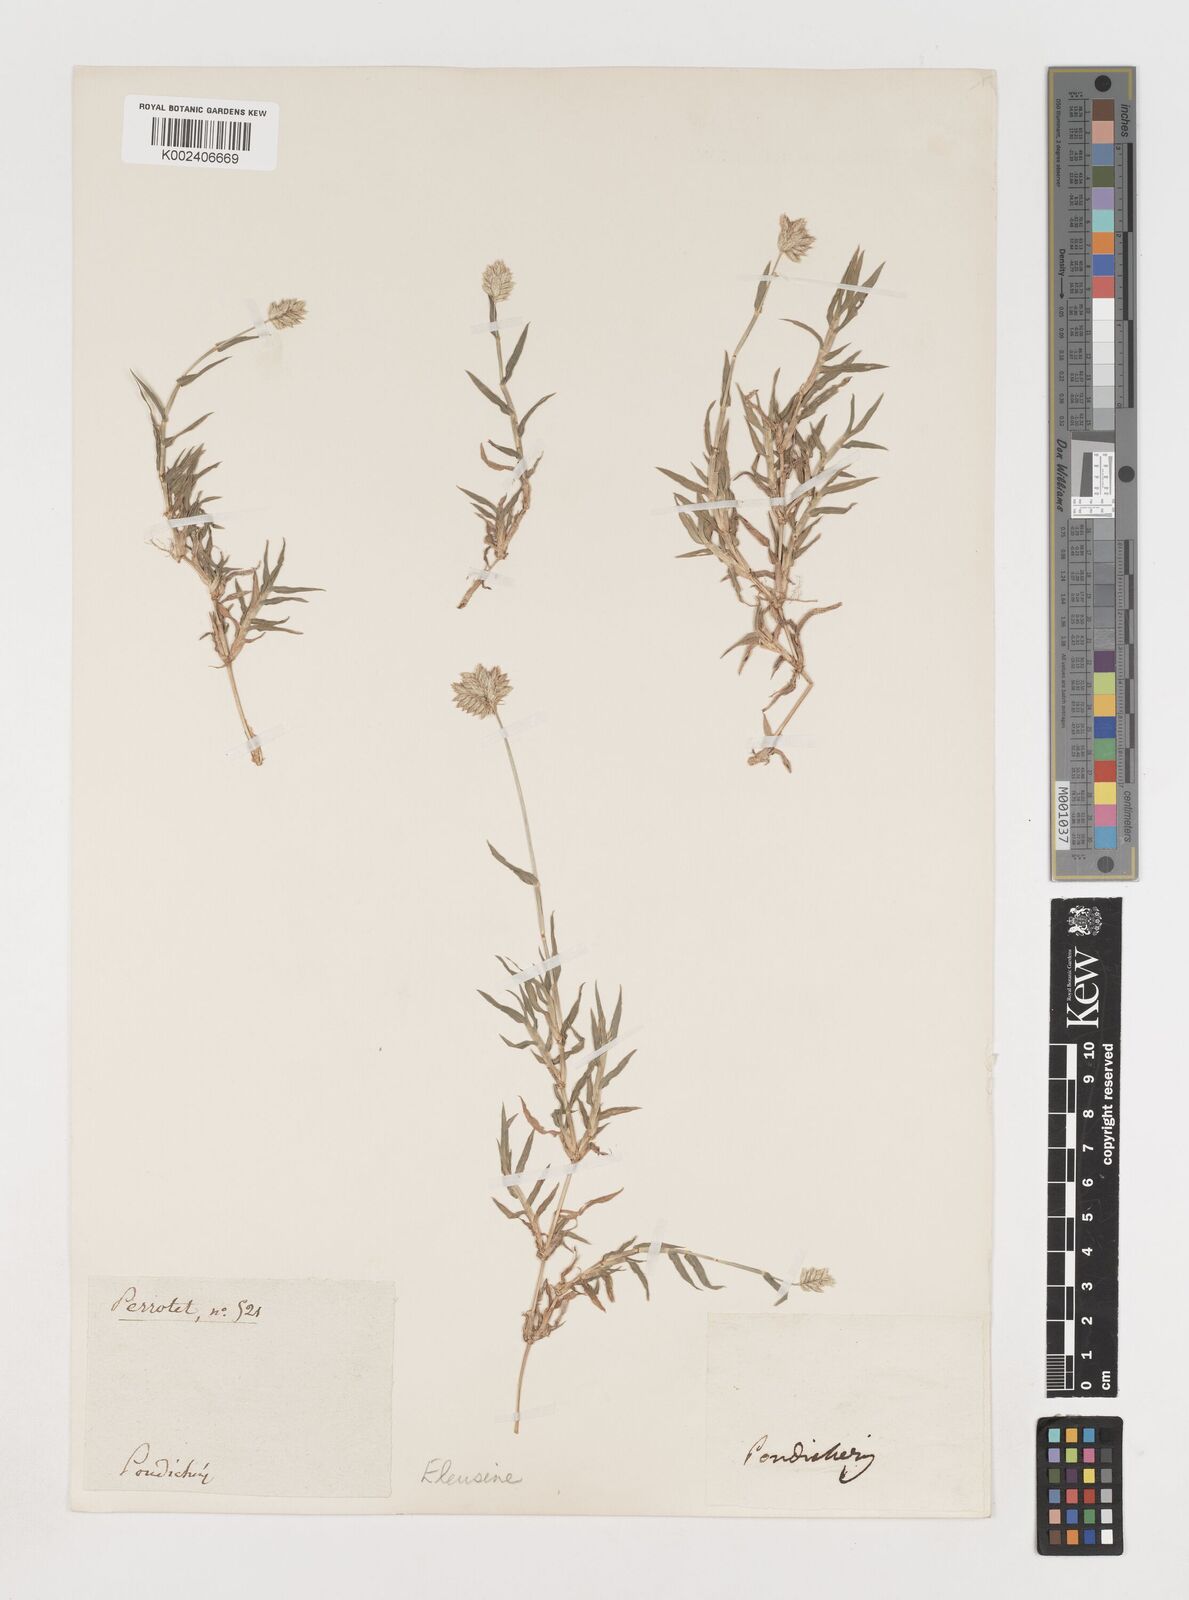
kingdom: Plantae
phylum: Tracheophyta
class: Liliopsida
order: Poales
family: Poaceae
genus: Coelachyrum
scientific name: Coelachyrum lagopoides
